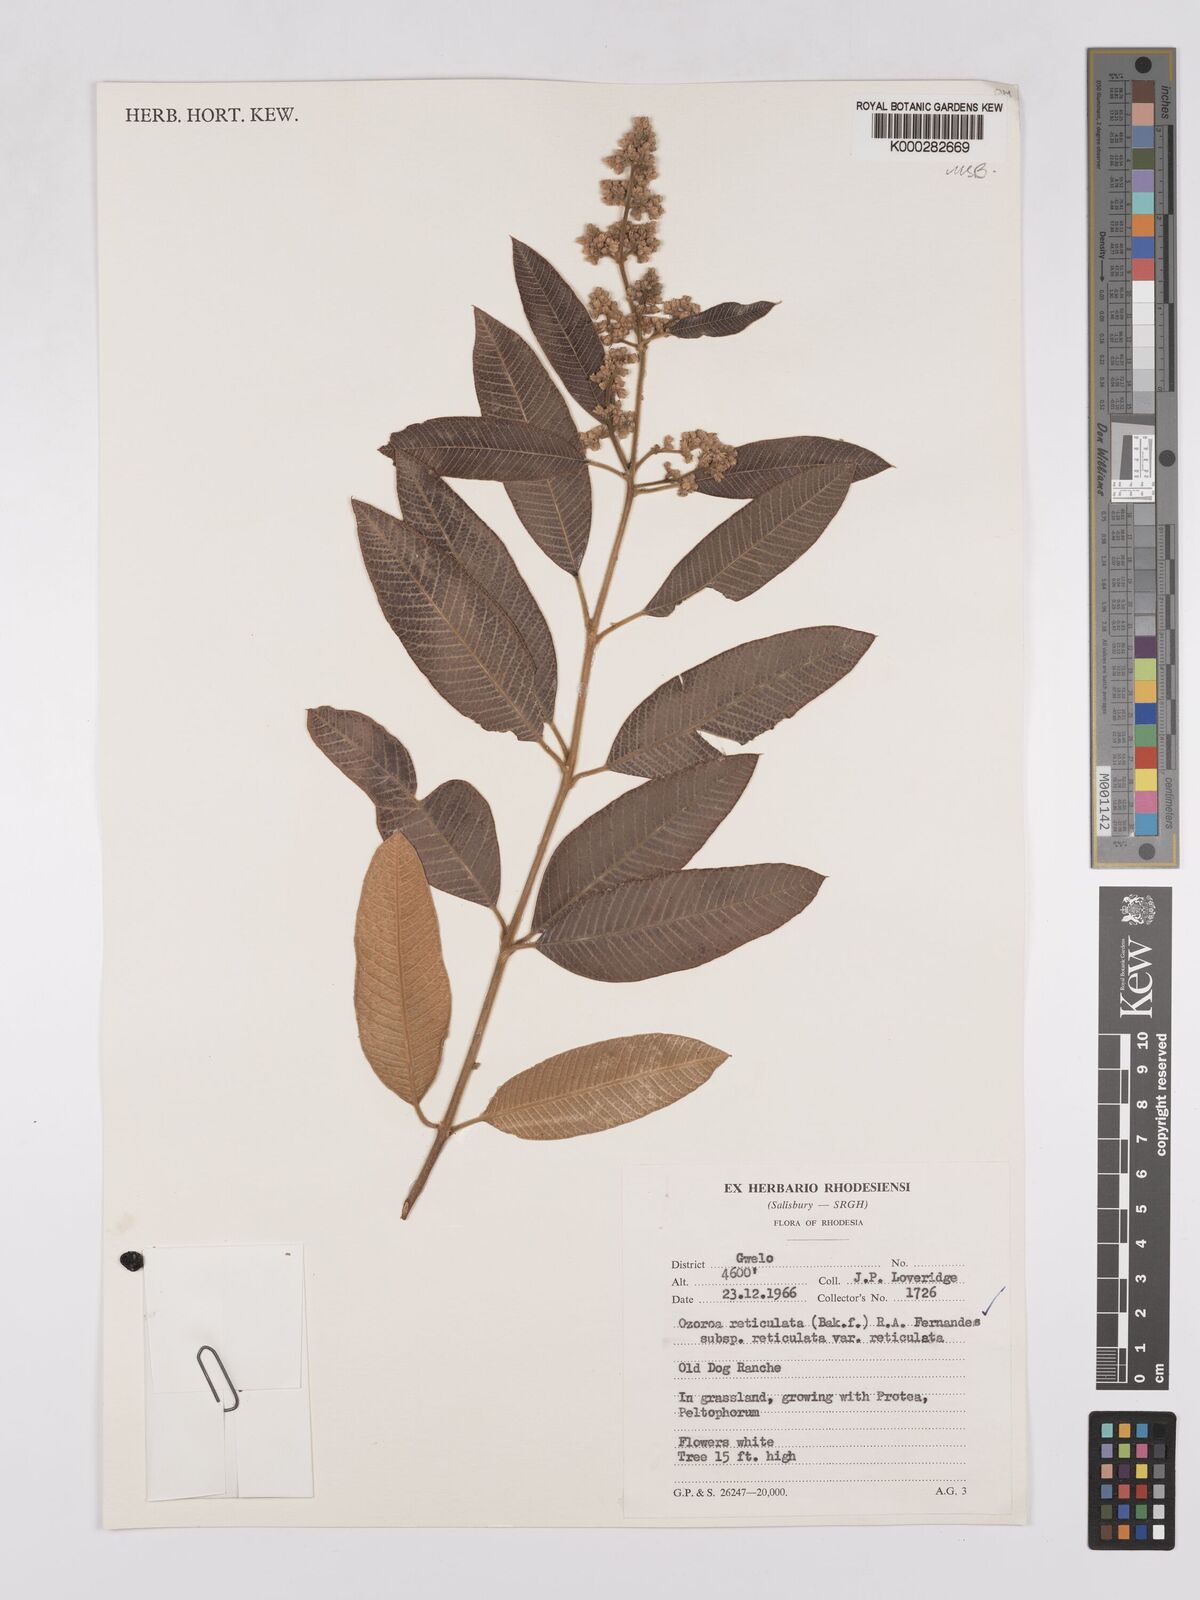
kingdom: Plantae
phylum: Tracheophyta
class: Magnoliopsida
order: Sapindales
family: Anacardiaceae
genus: Ozoroa
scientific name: Ozoroa insignis
